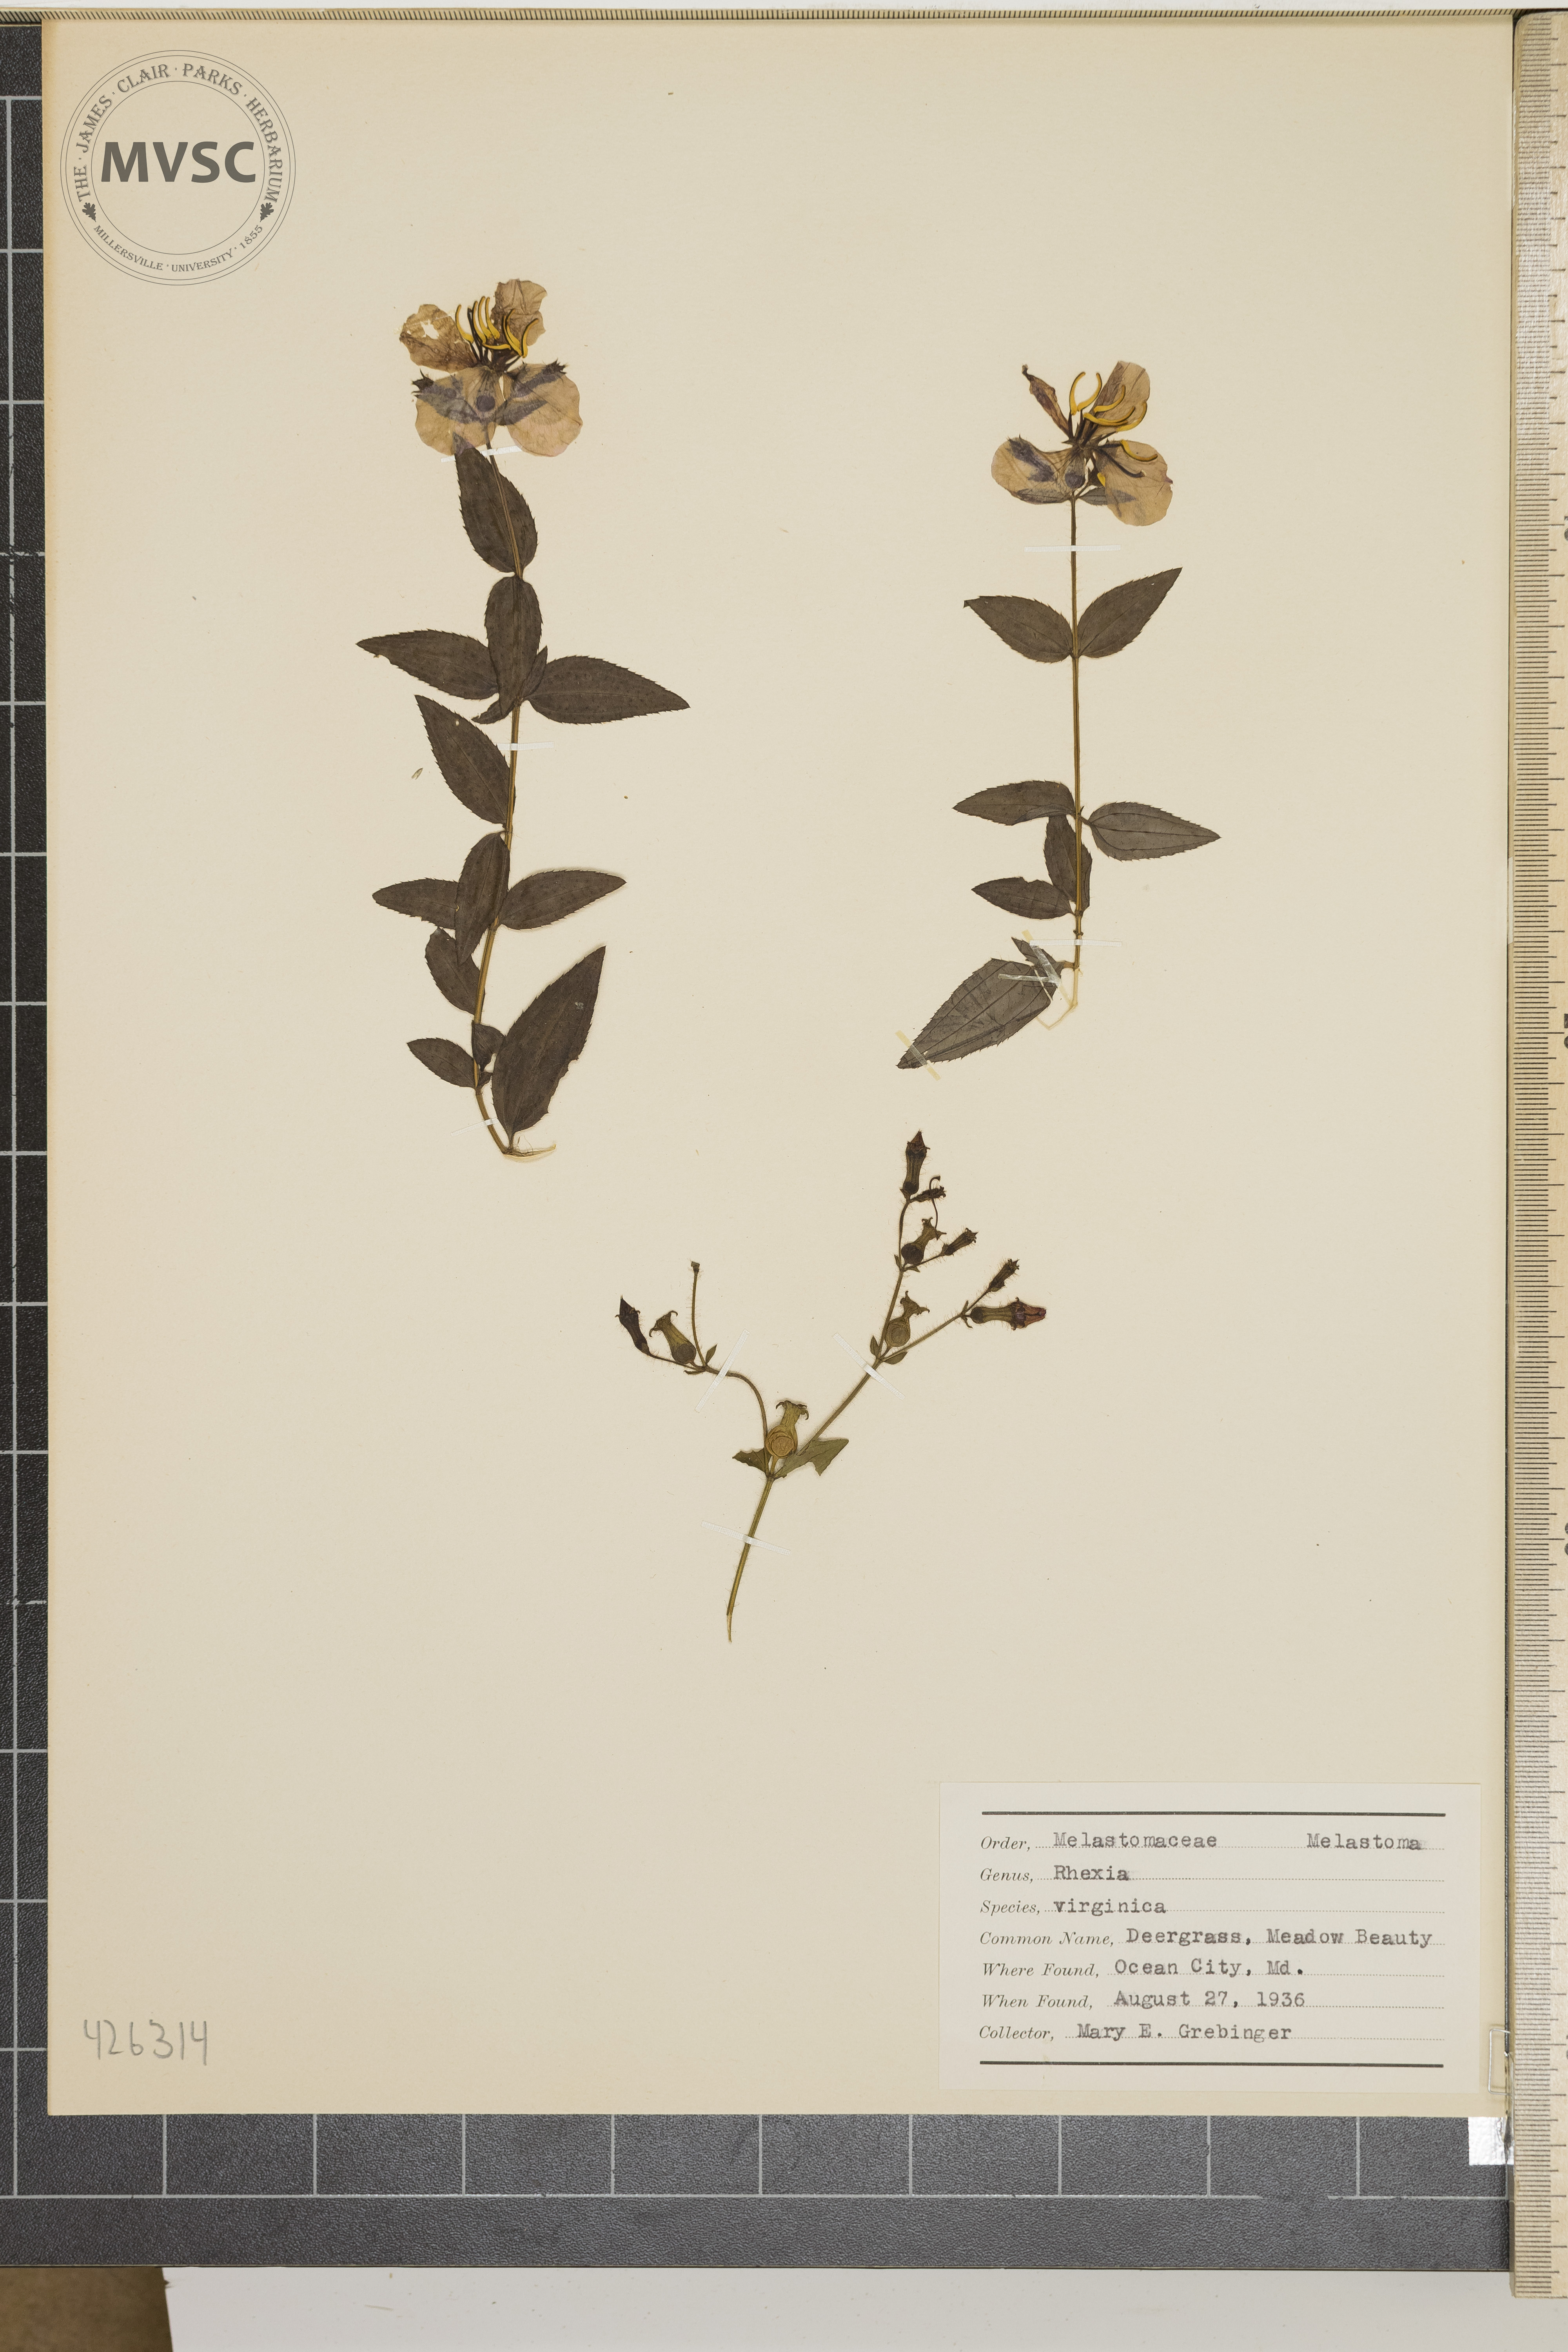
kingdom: Plantae
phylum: Tracheophyta
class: Magnoliopsida
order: Myrtales
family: Melastomataceae
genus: Rhexia
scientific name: Rhexia virginica
